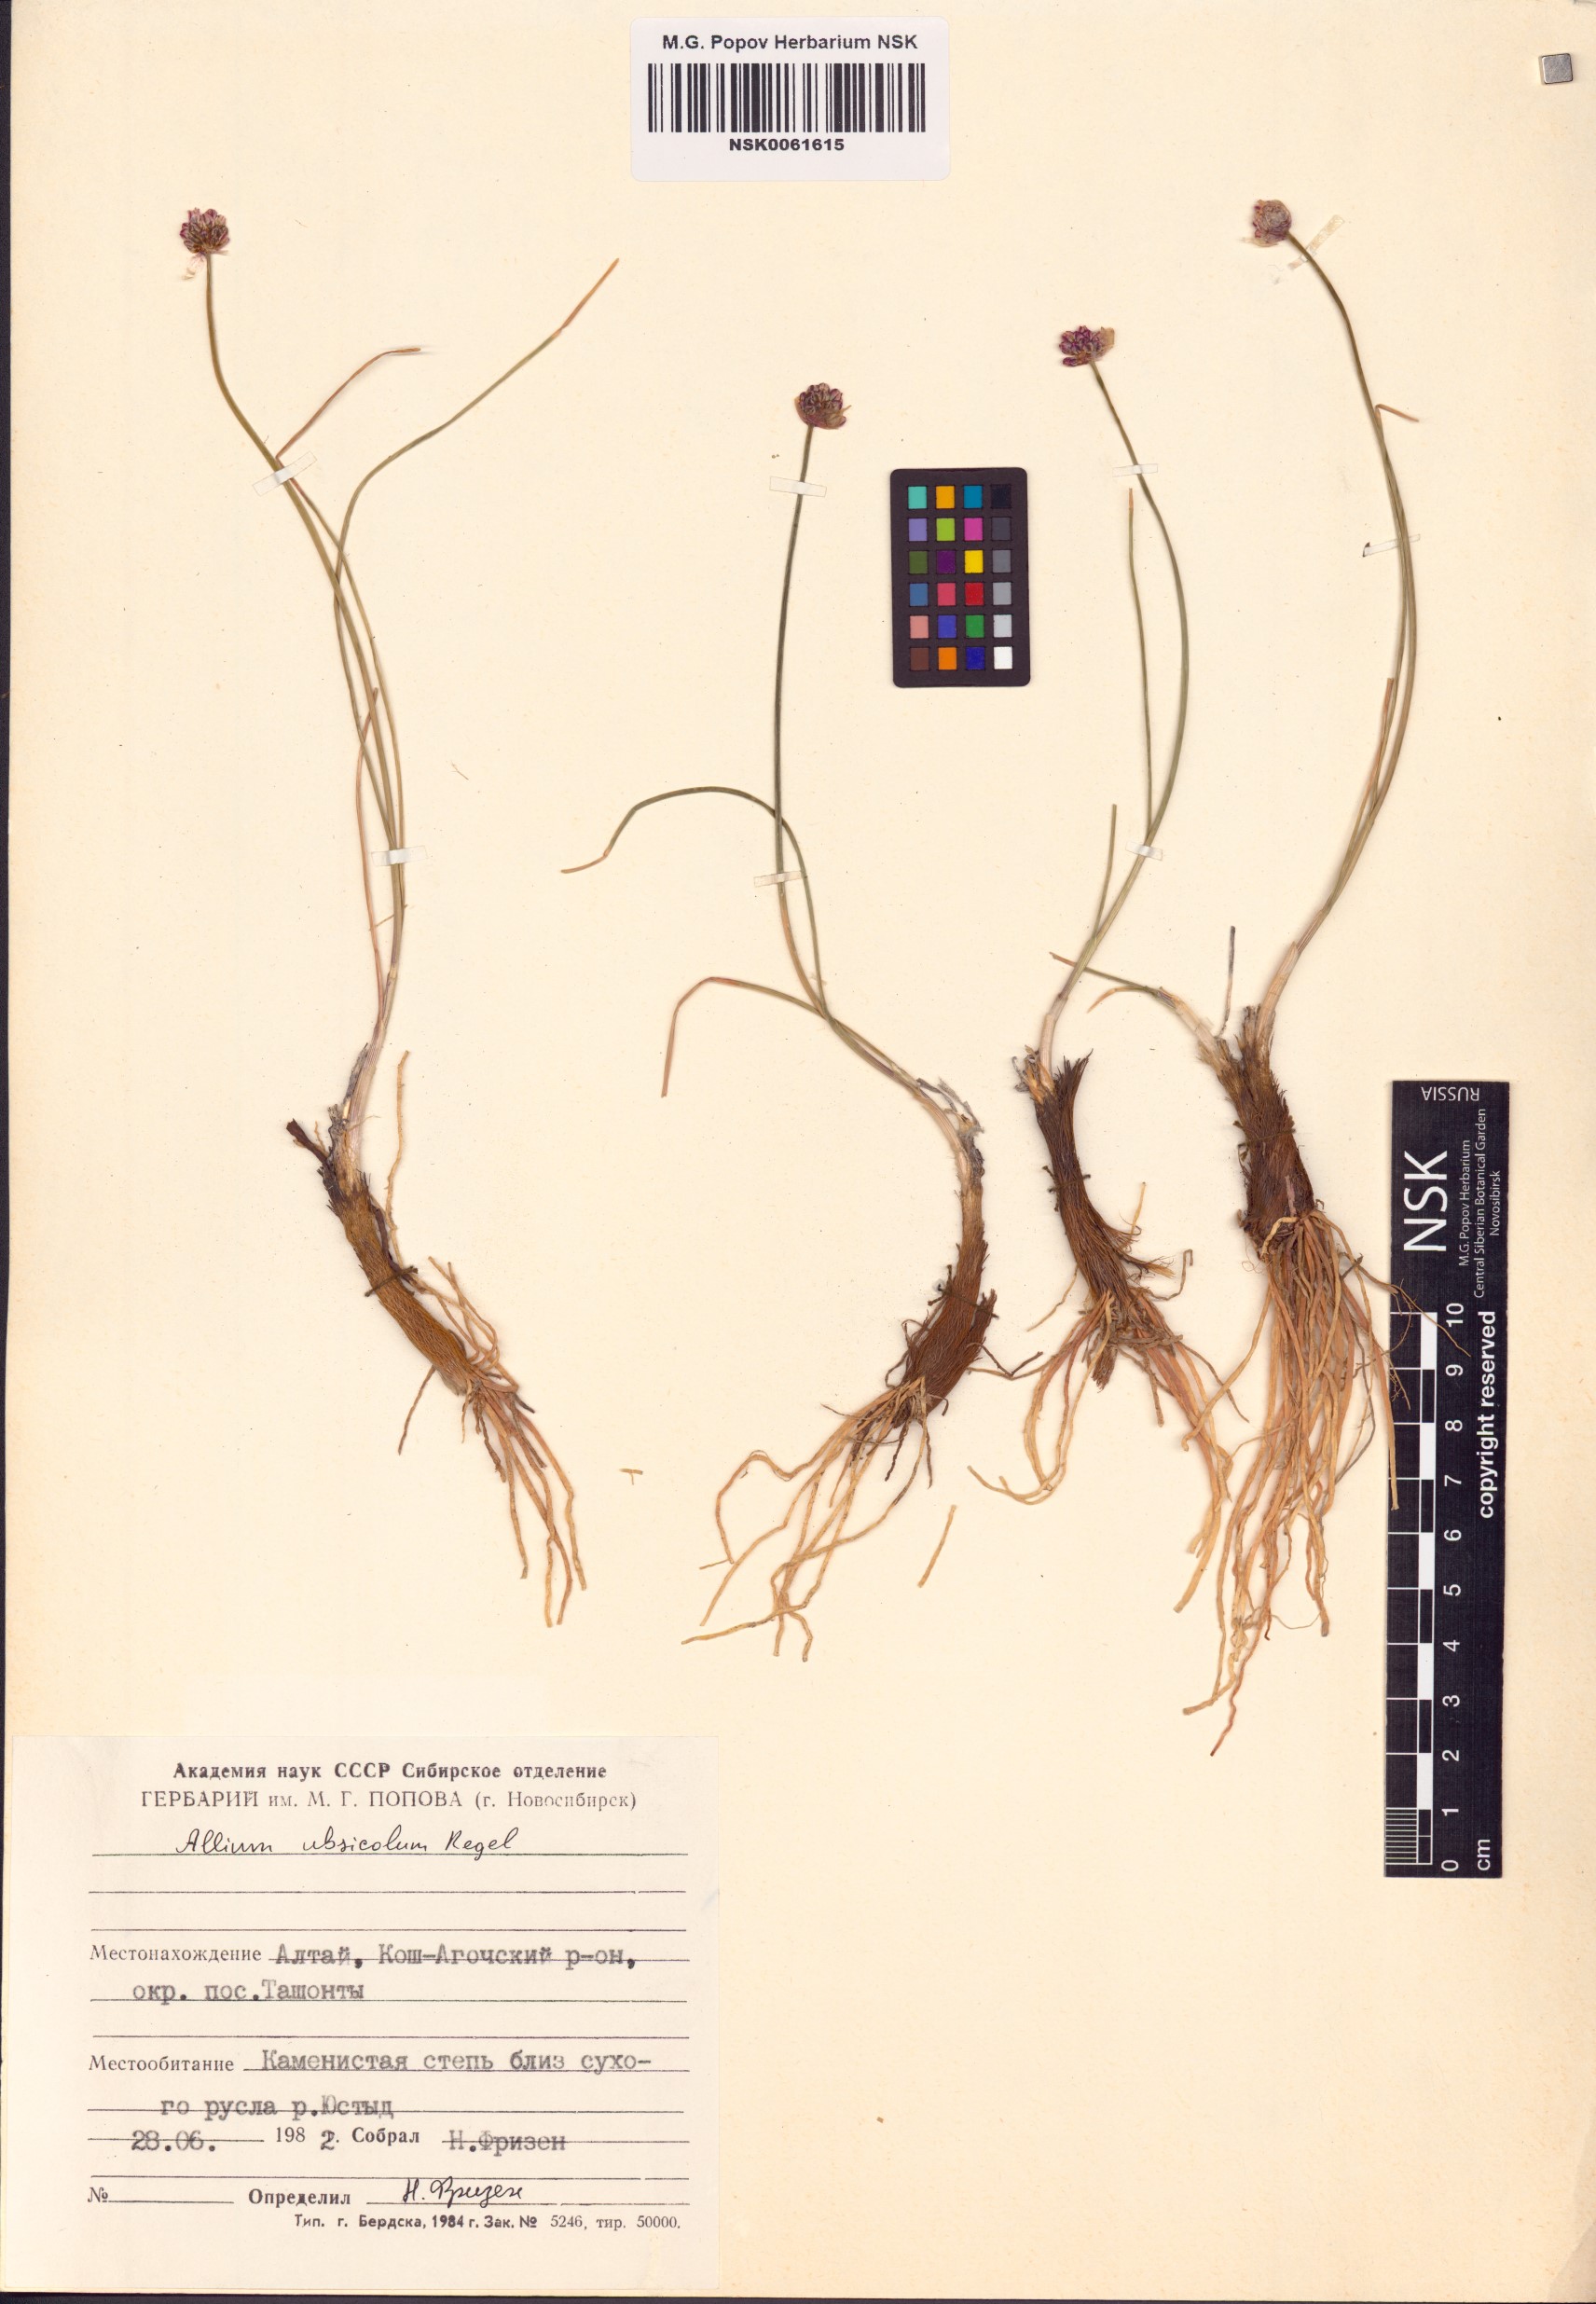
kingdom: Plantae
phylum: Tracheophyta
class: Liliopsida
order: Asparagales
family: Amaryllidaceae
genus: Allium
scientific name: Allium ubsicola
